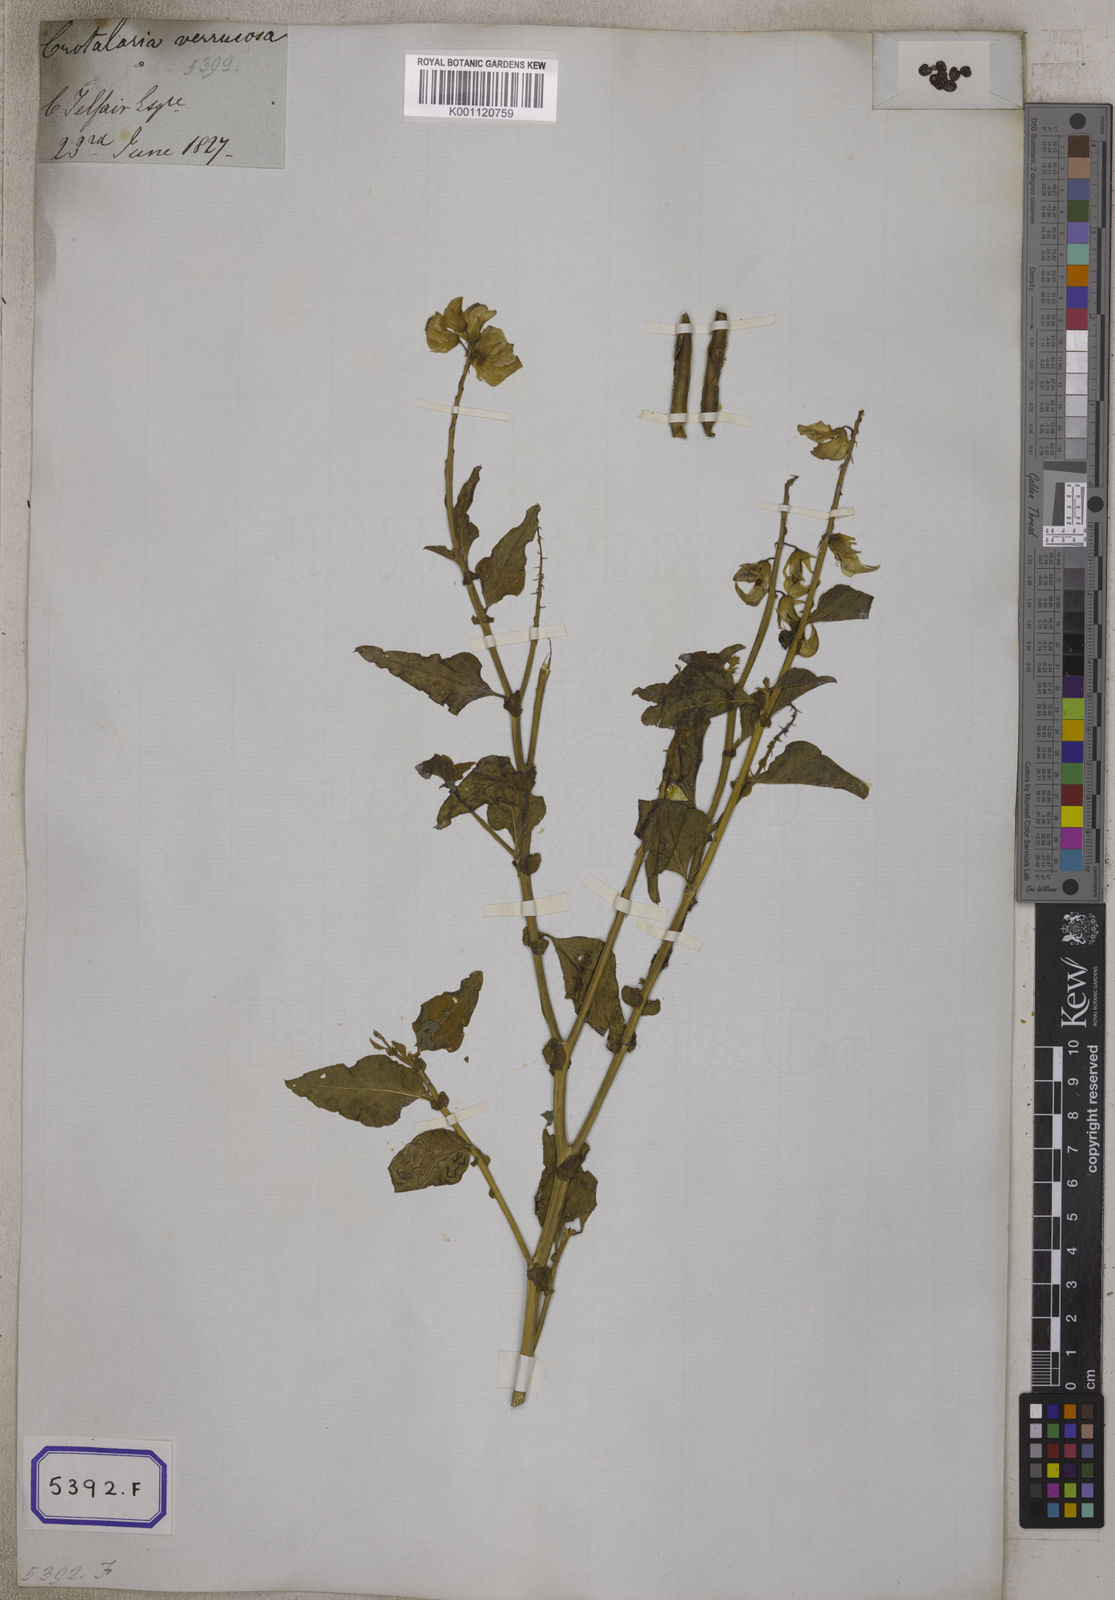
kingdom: Plantae
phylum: Tracheophyta
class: Magnoliopsida
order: Fabales
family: Fabaceae
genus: Crotalaria
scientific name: Crotalaria verrucosa
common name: Blue rattlesnake
